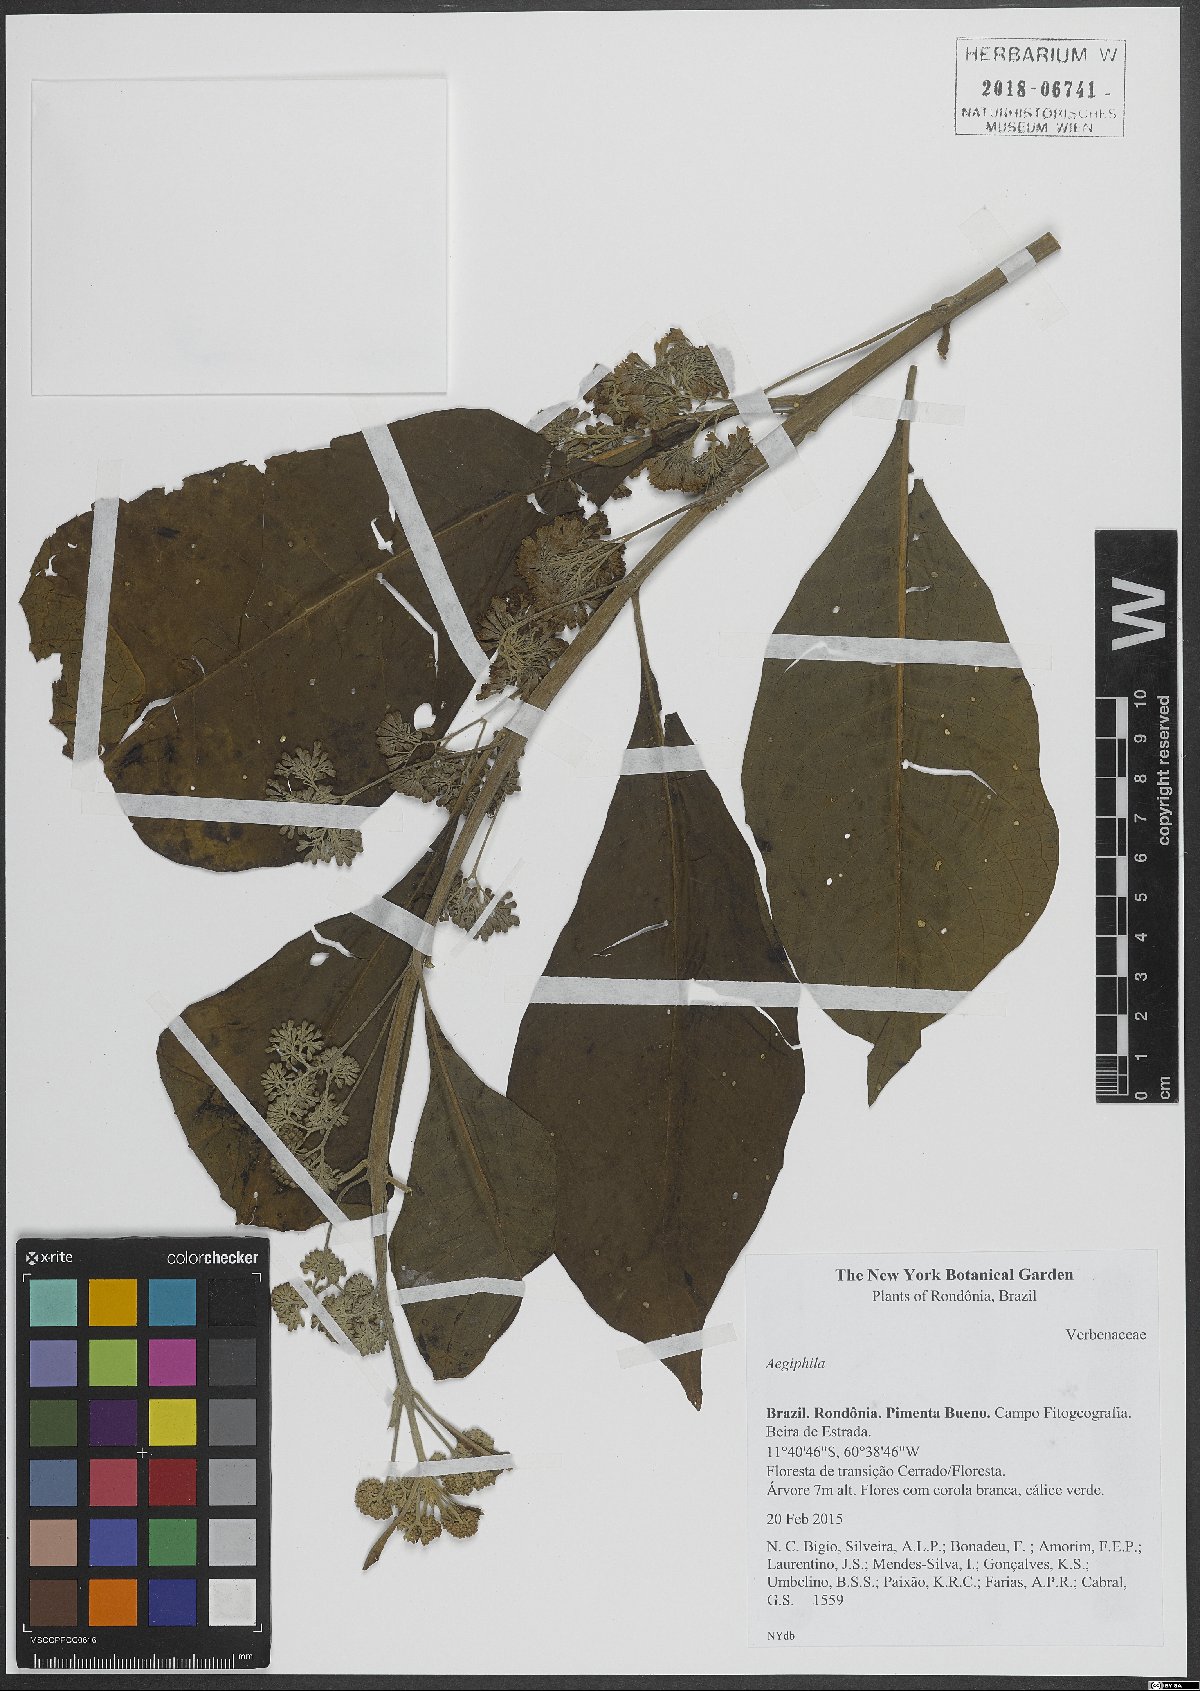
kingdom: Plantae
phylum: Tracheophyta
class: Magnoliopsida
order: Lamiales
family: Lamiaceae
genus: Aegiphila
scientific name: Aegiphila
